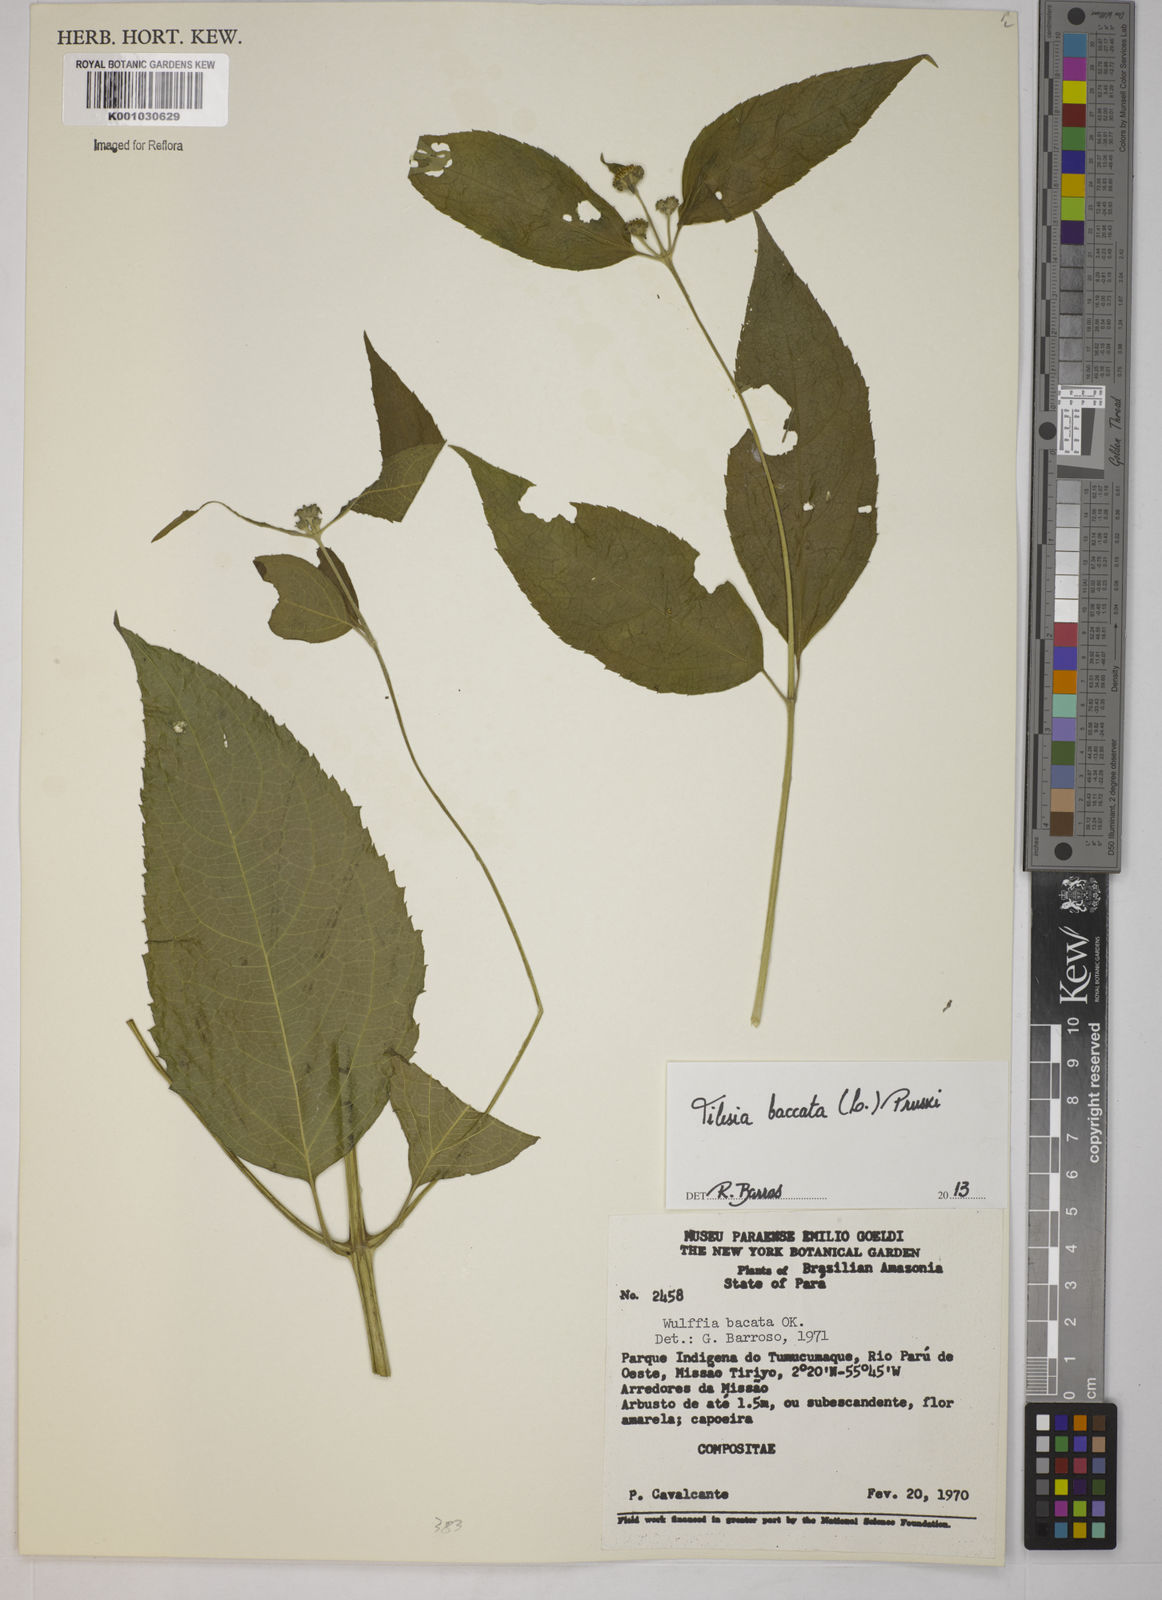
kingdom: Plantae
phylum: Tracheophyta
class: Magnoliopsida
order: Asterales
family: Asteraceae
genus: Tilesia
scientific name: Tilesia baccata
